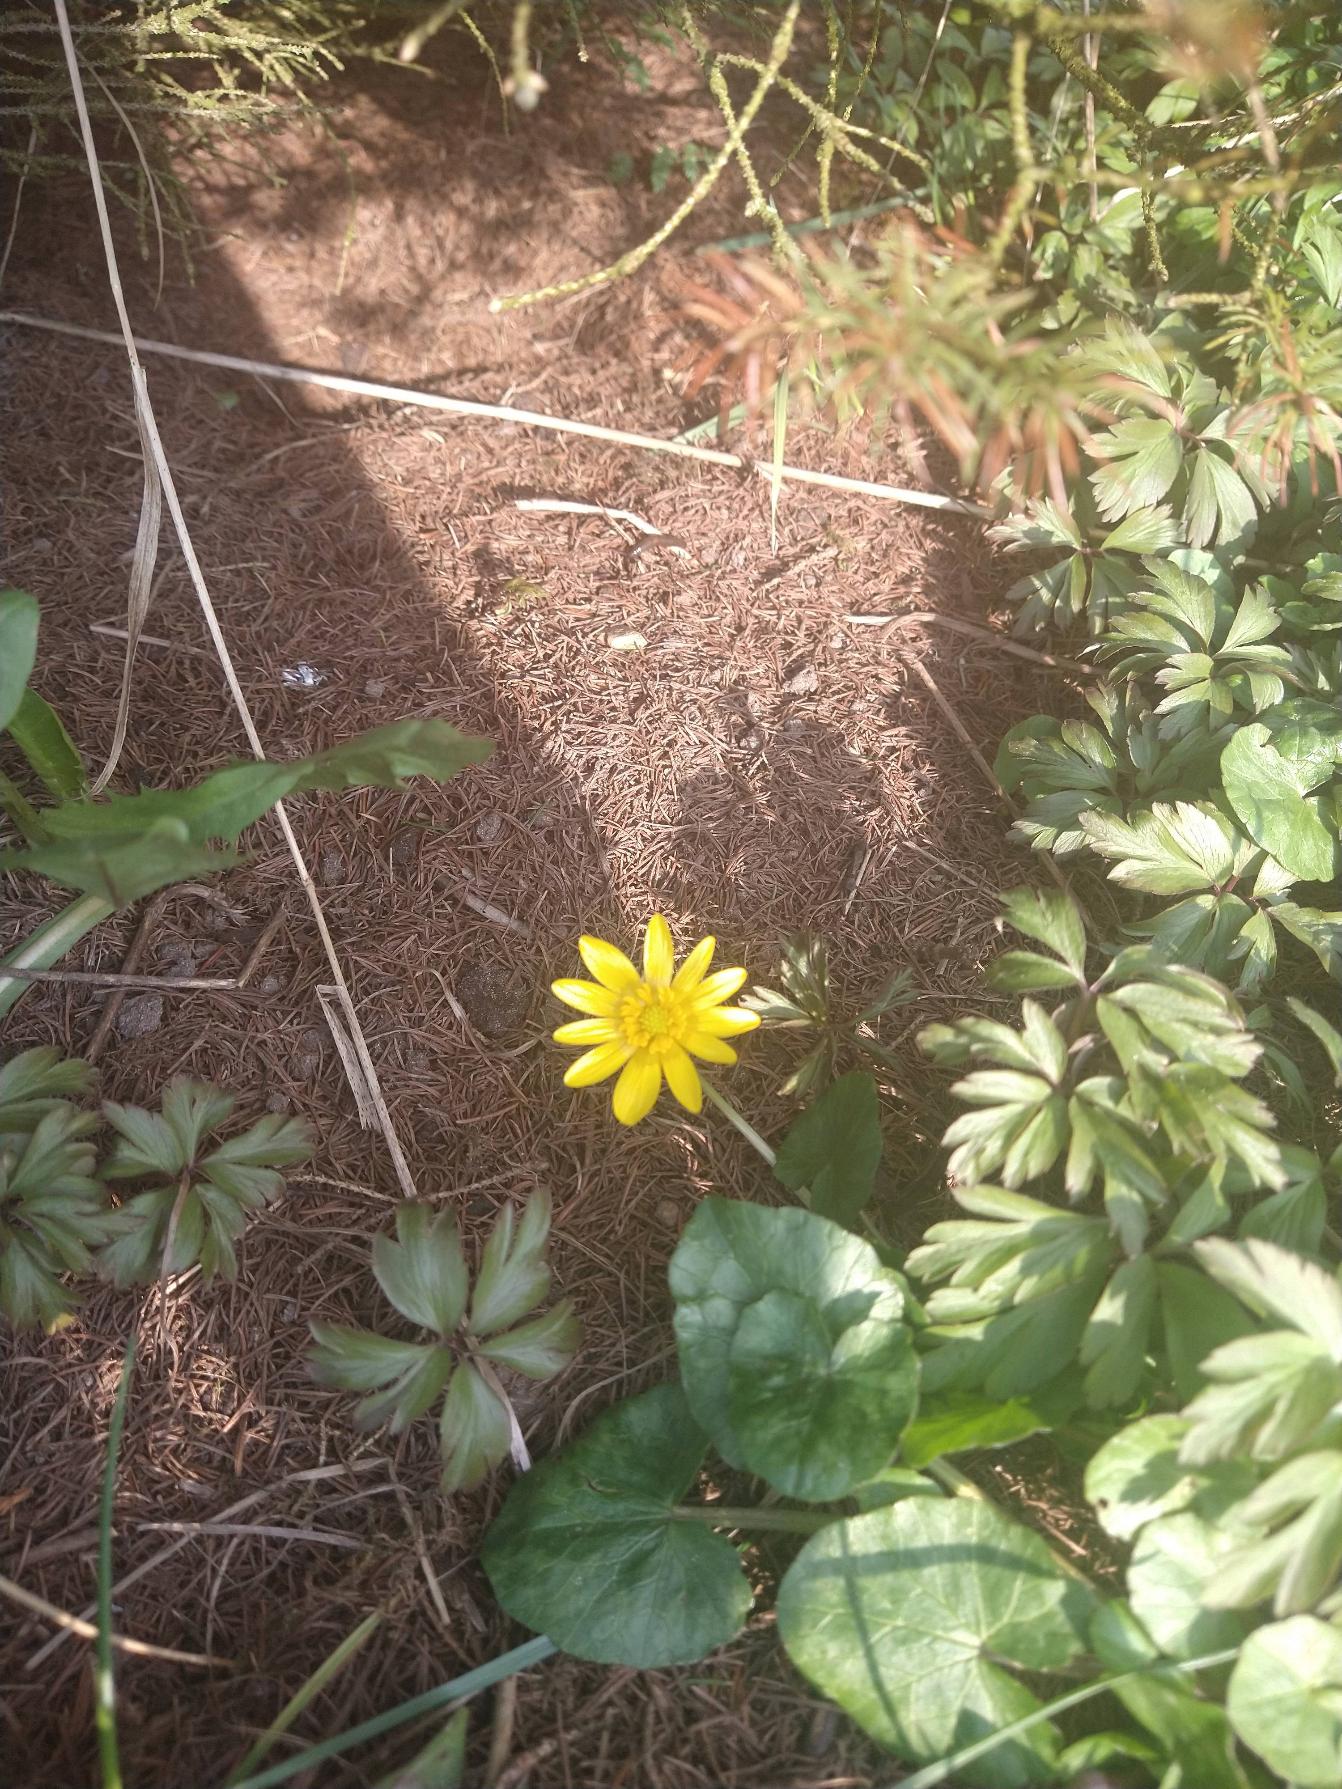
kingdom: Plantae
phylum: Tracheophyta
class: Magnoliopsida
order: Ranunculales
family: Ranunculaceae
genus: Ficaria
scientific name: Ficaria verna
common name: Vorterod
